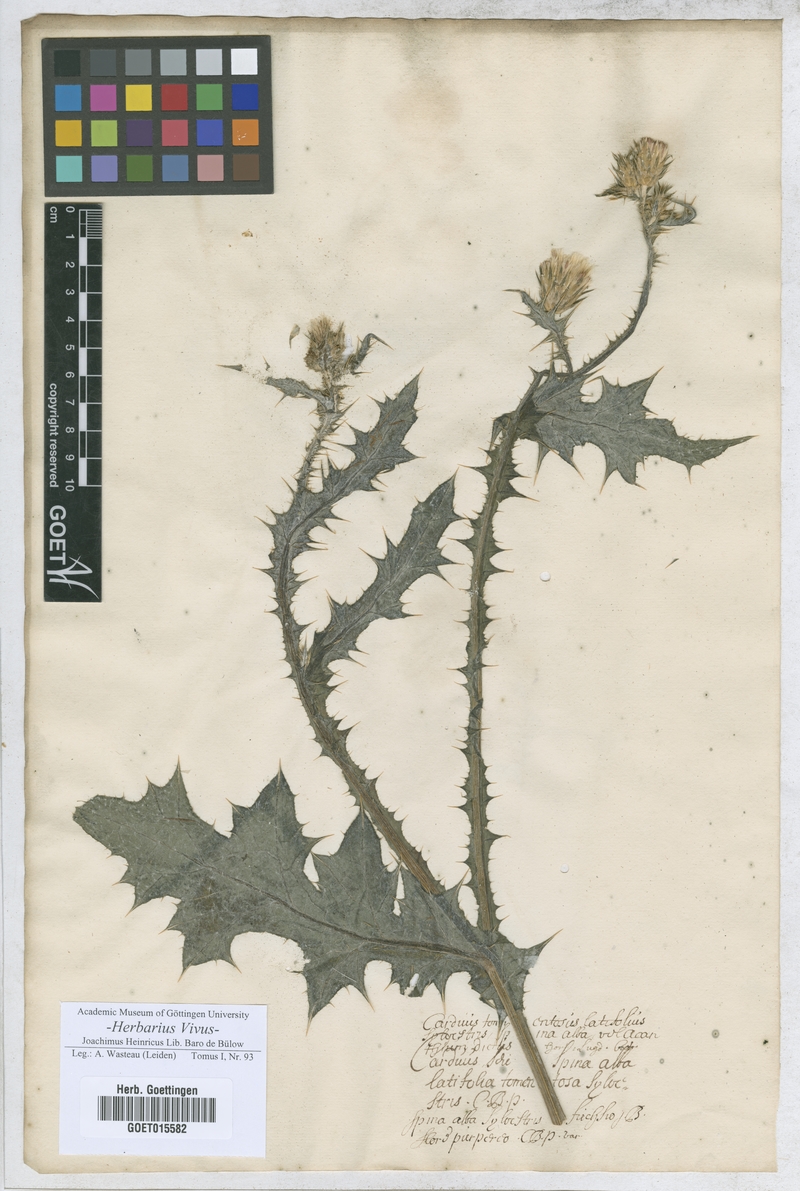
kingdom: Plantae
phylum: Tracheophyta
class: Magnoliopsida
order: Asterales
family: Asteraceae
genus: Onopordum
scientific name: Onopordum acanthium
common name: Scotch thistle
